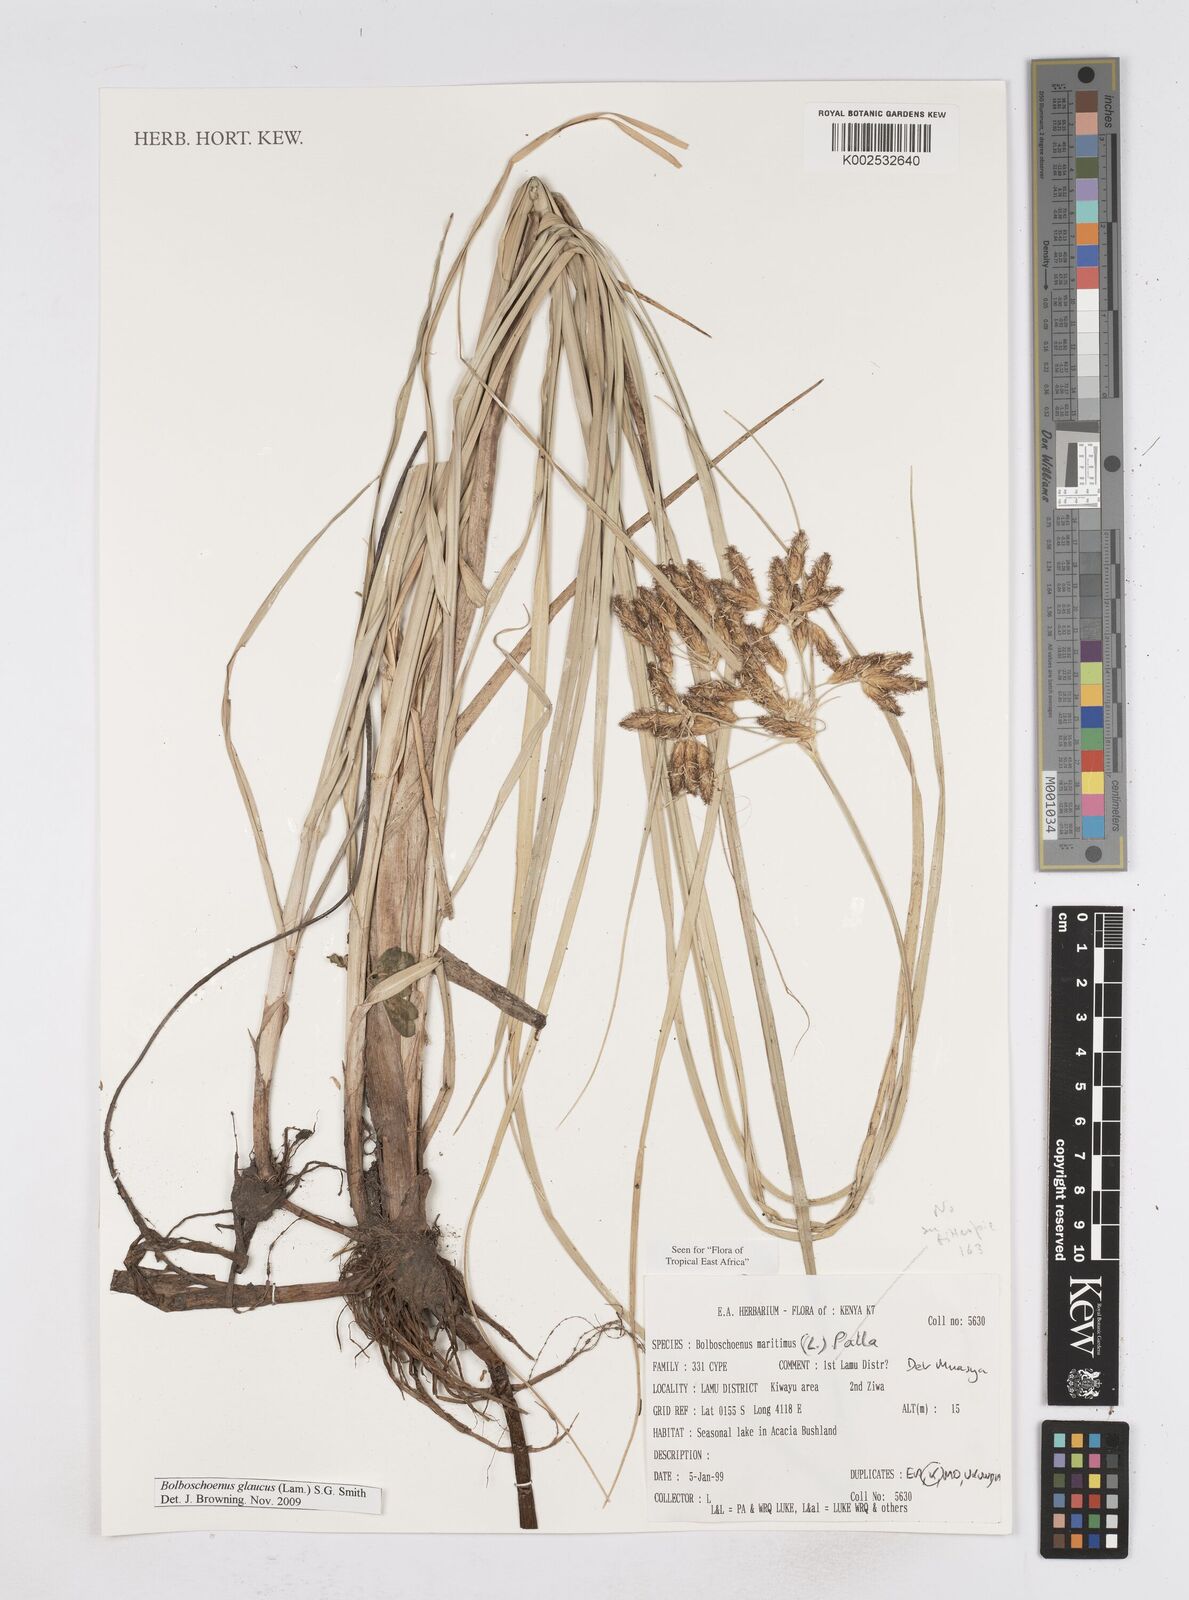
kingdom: Plantae
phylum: Tracheophyta
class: Liliopsida
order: Poales
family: Cyperaceae
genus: Bolboschoenus
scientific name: Bolboschoenus glaucus
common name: Tuberous bulrush
